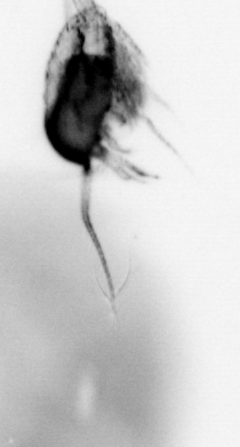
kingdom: Animalia
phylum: Arthropoda
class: Copepoda
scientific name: Copepoda
